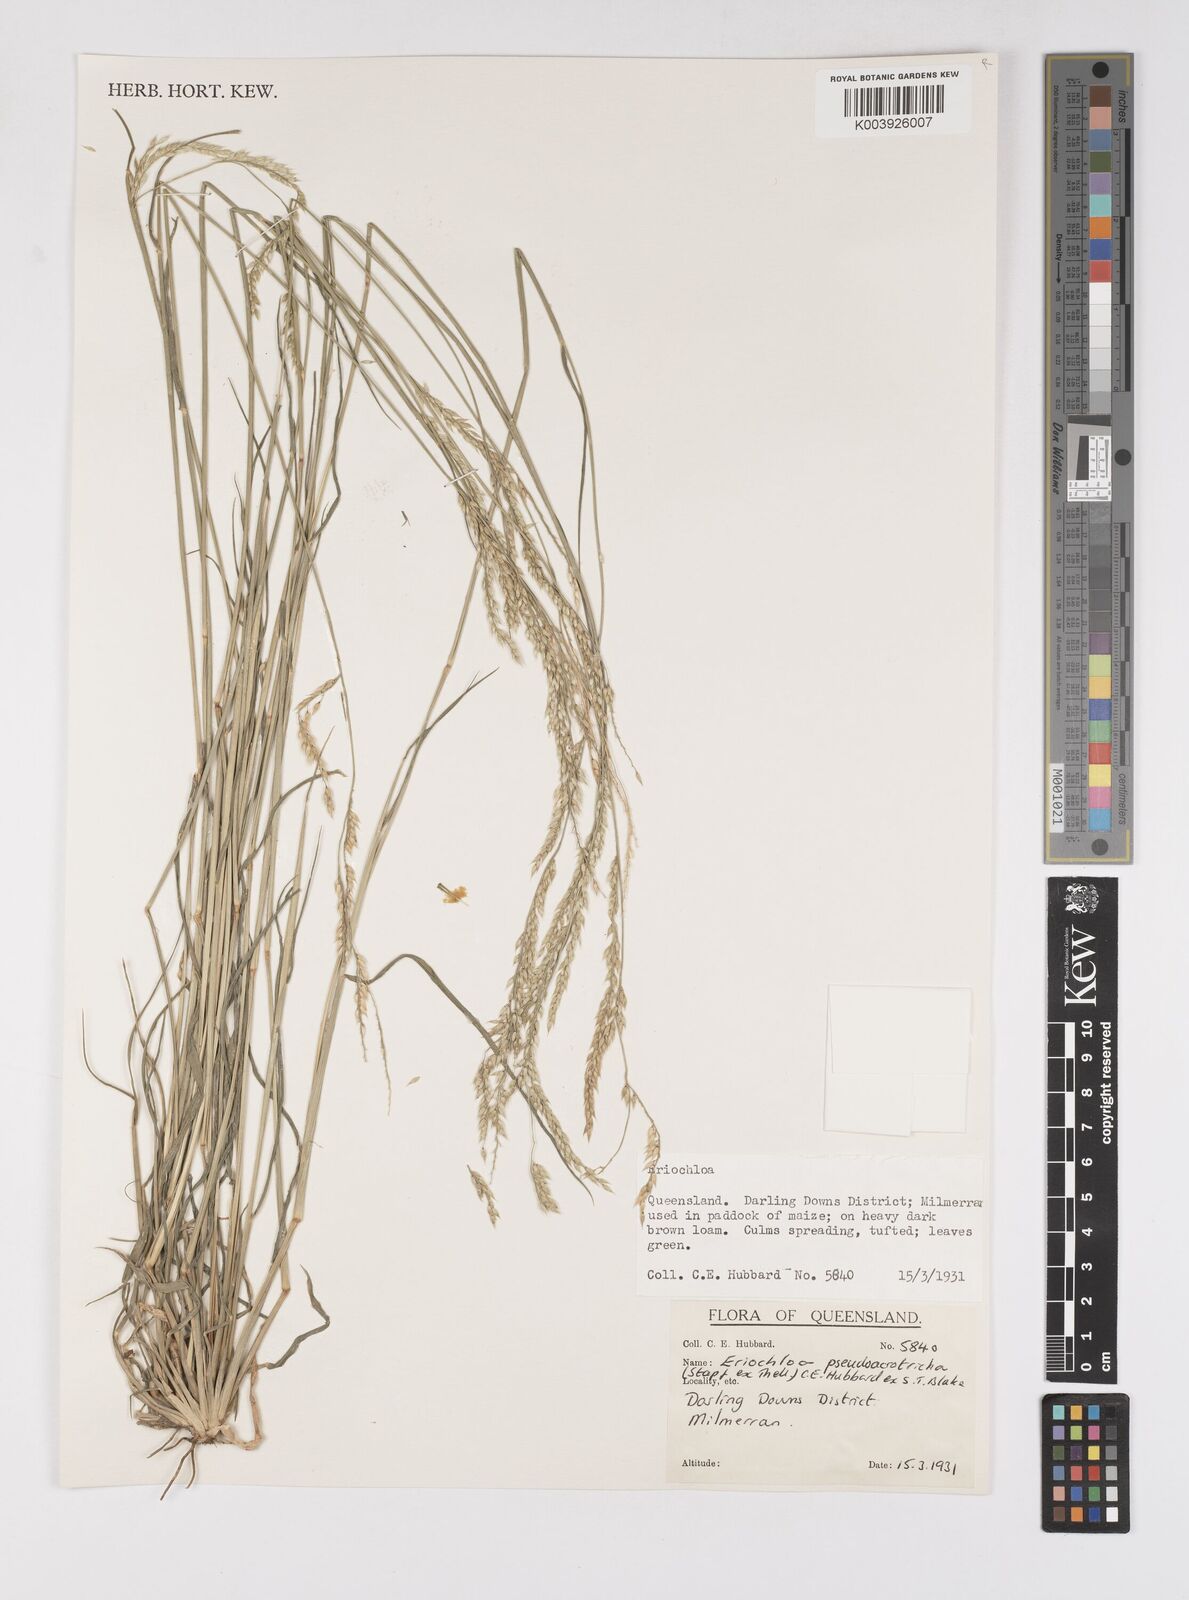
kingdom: Plantae
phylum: Tracheophyta
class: Liliopsida
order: Poales
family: Poaceae
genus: Eriochloa
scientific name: Eriochloa pseudoacrotricha
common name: Perennial cup-grass
